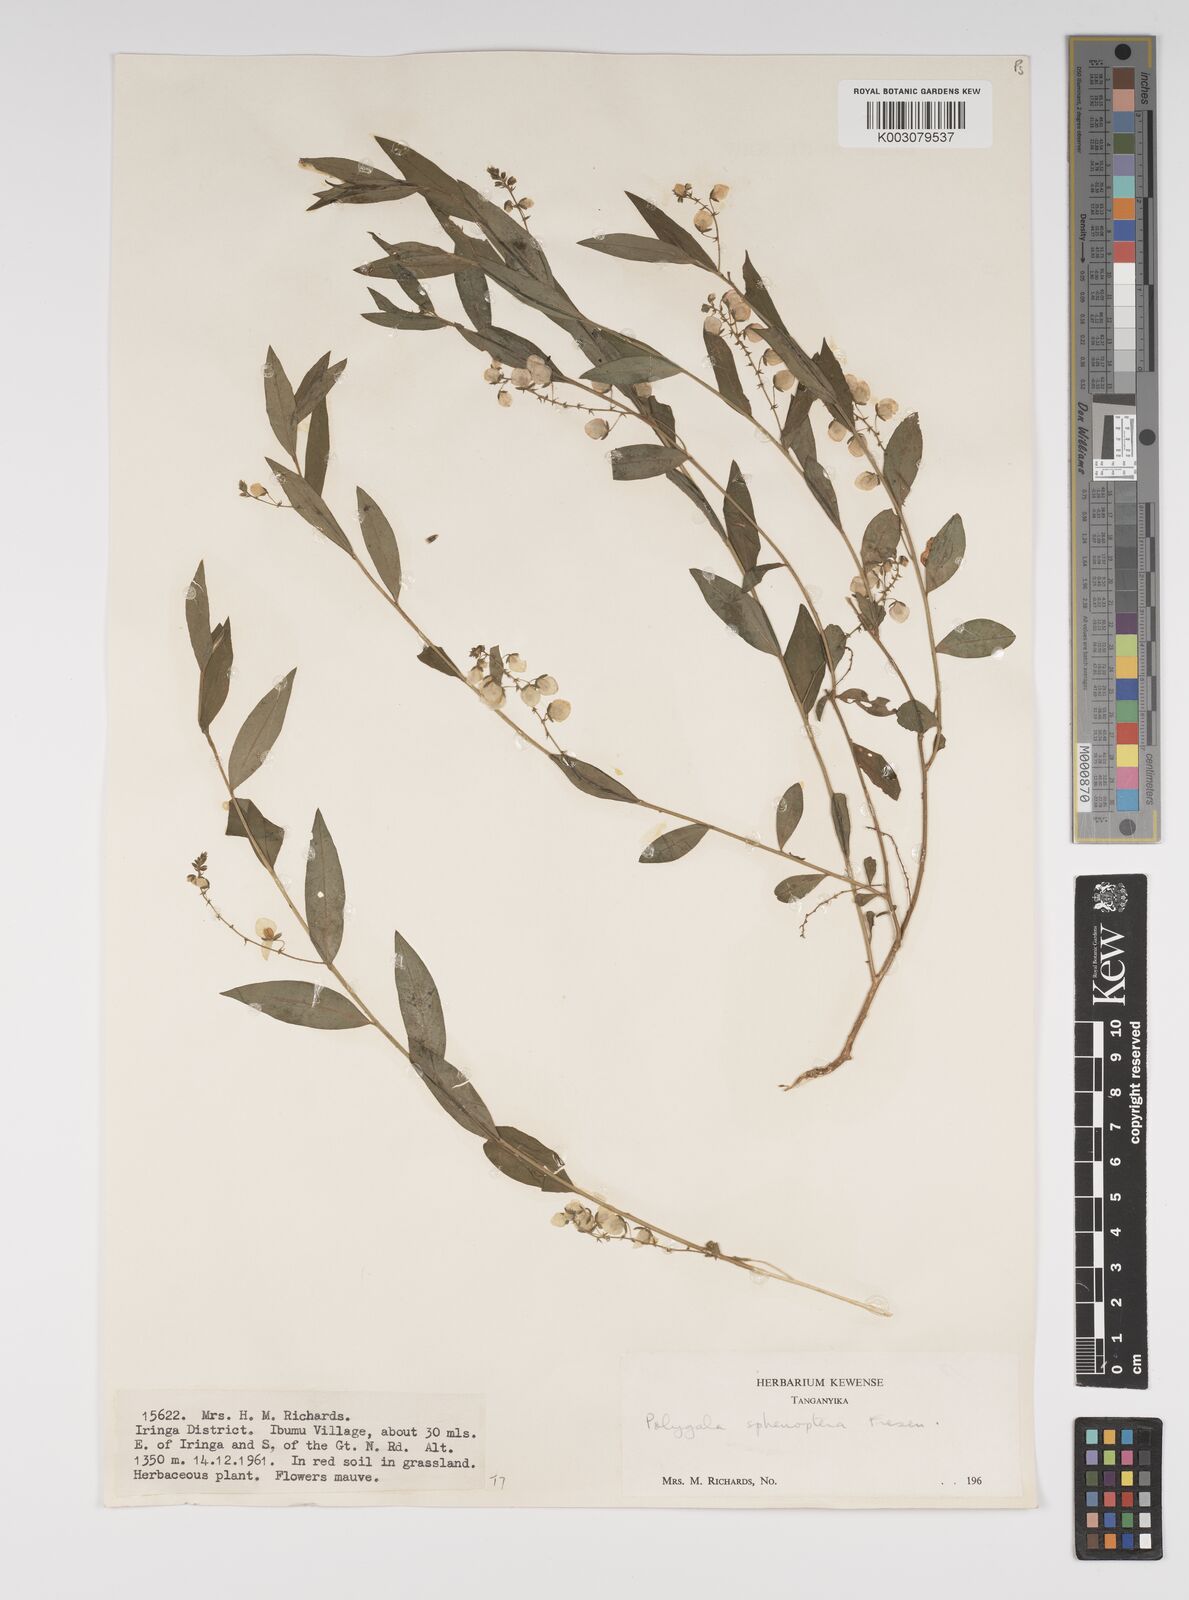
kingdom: Plantae
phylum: Tracheophyta
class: Magnoliopsida
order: Fabales
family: Polygalaceae
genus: Polygala
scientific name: Polygala sphenoptera
